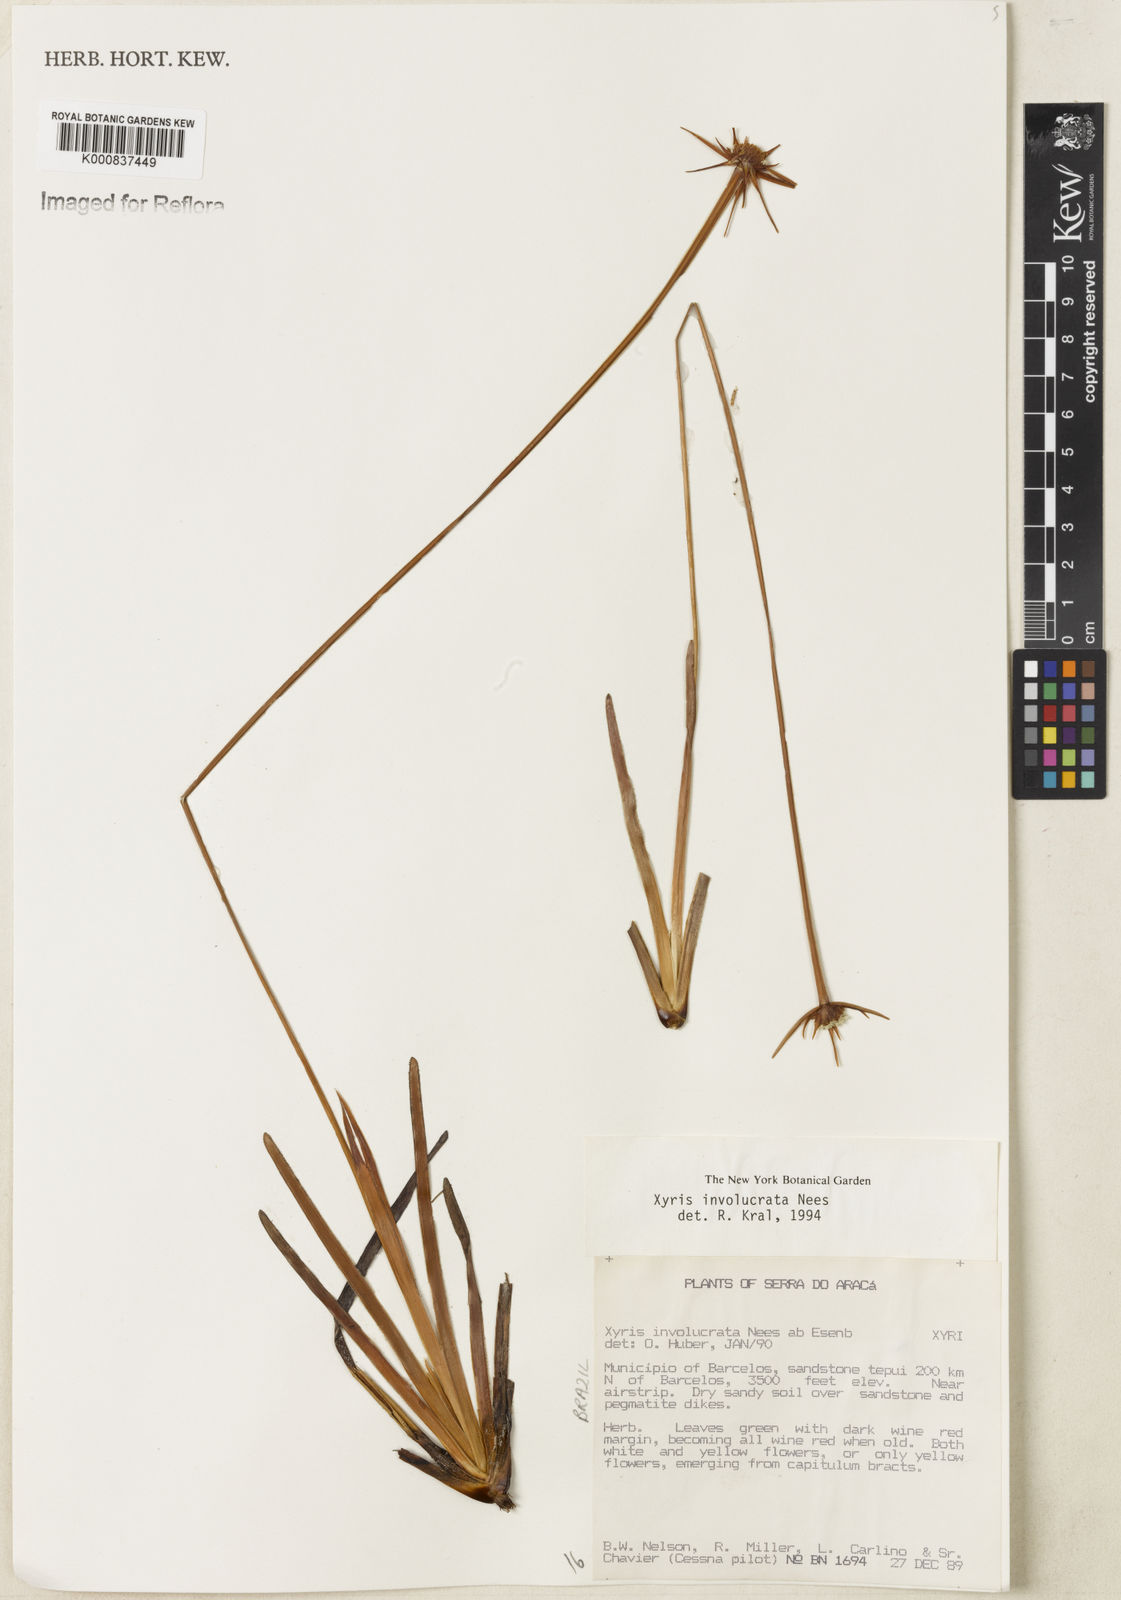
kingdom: Plantae
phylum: Tracheophyta
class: Liliopsida
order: Poales
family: Xyridaceae
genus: Xyris
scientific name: Xyris involucrata
